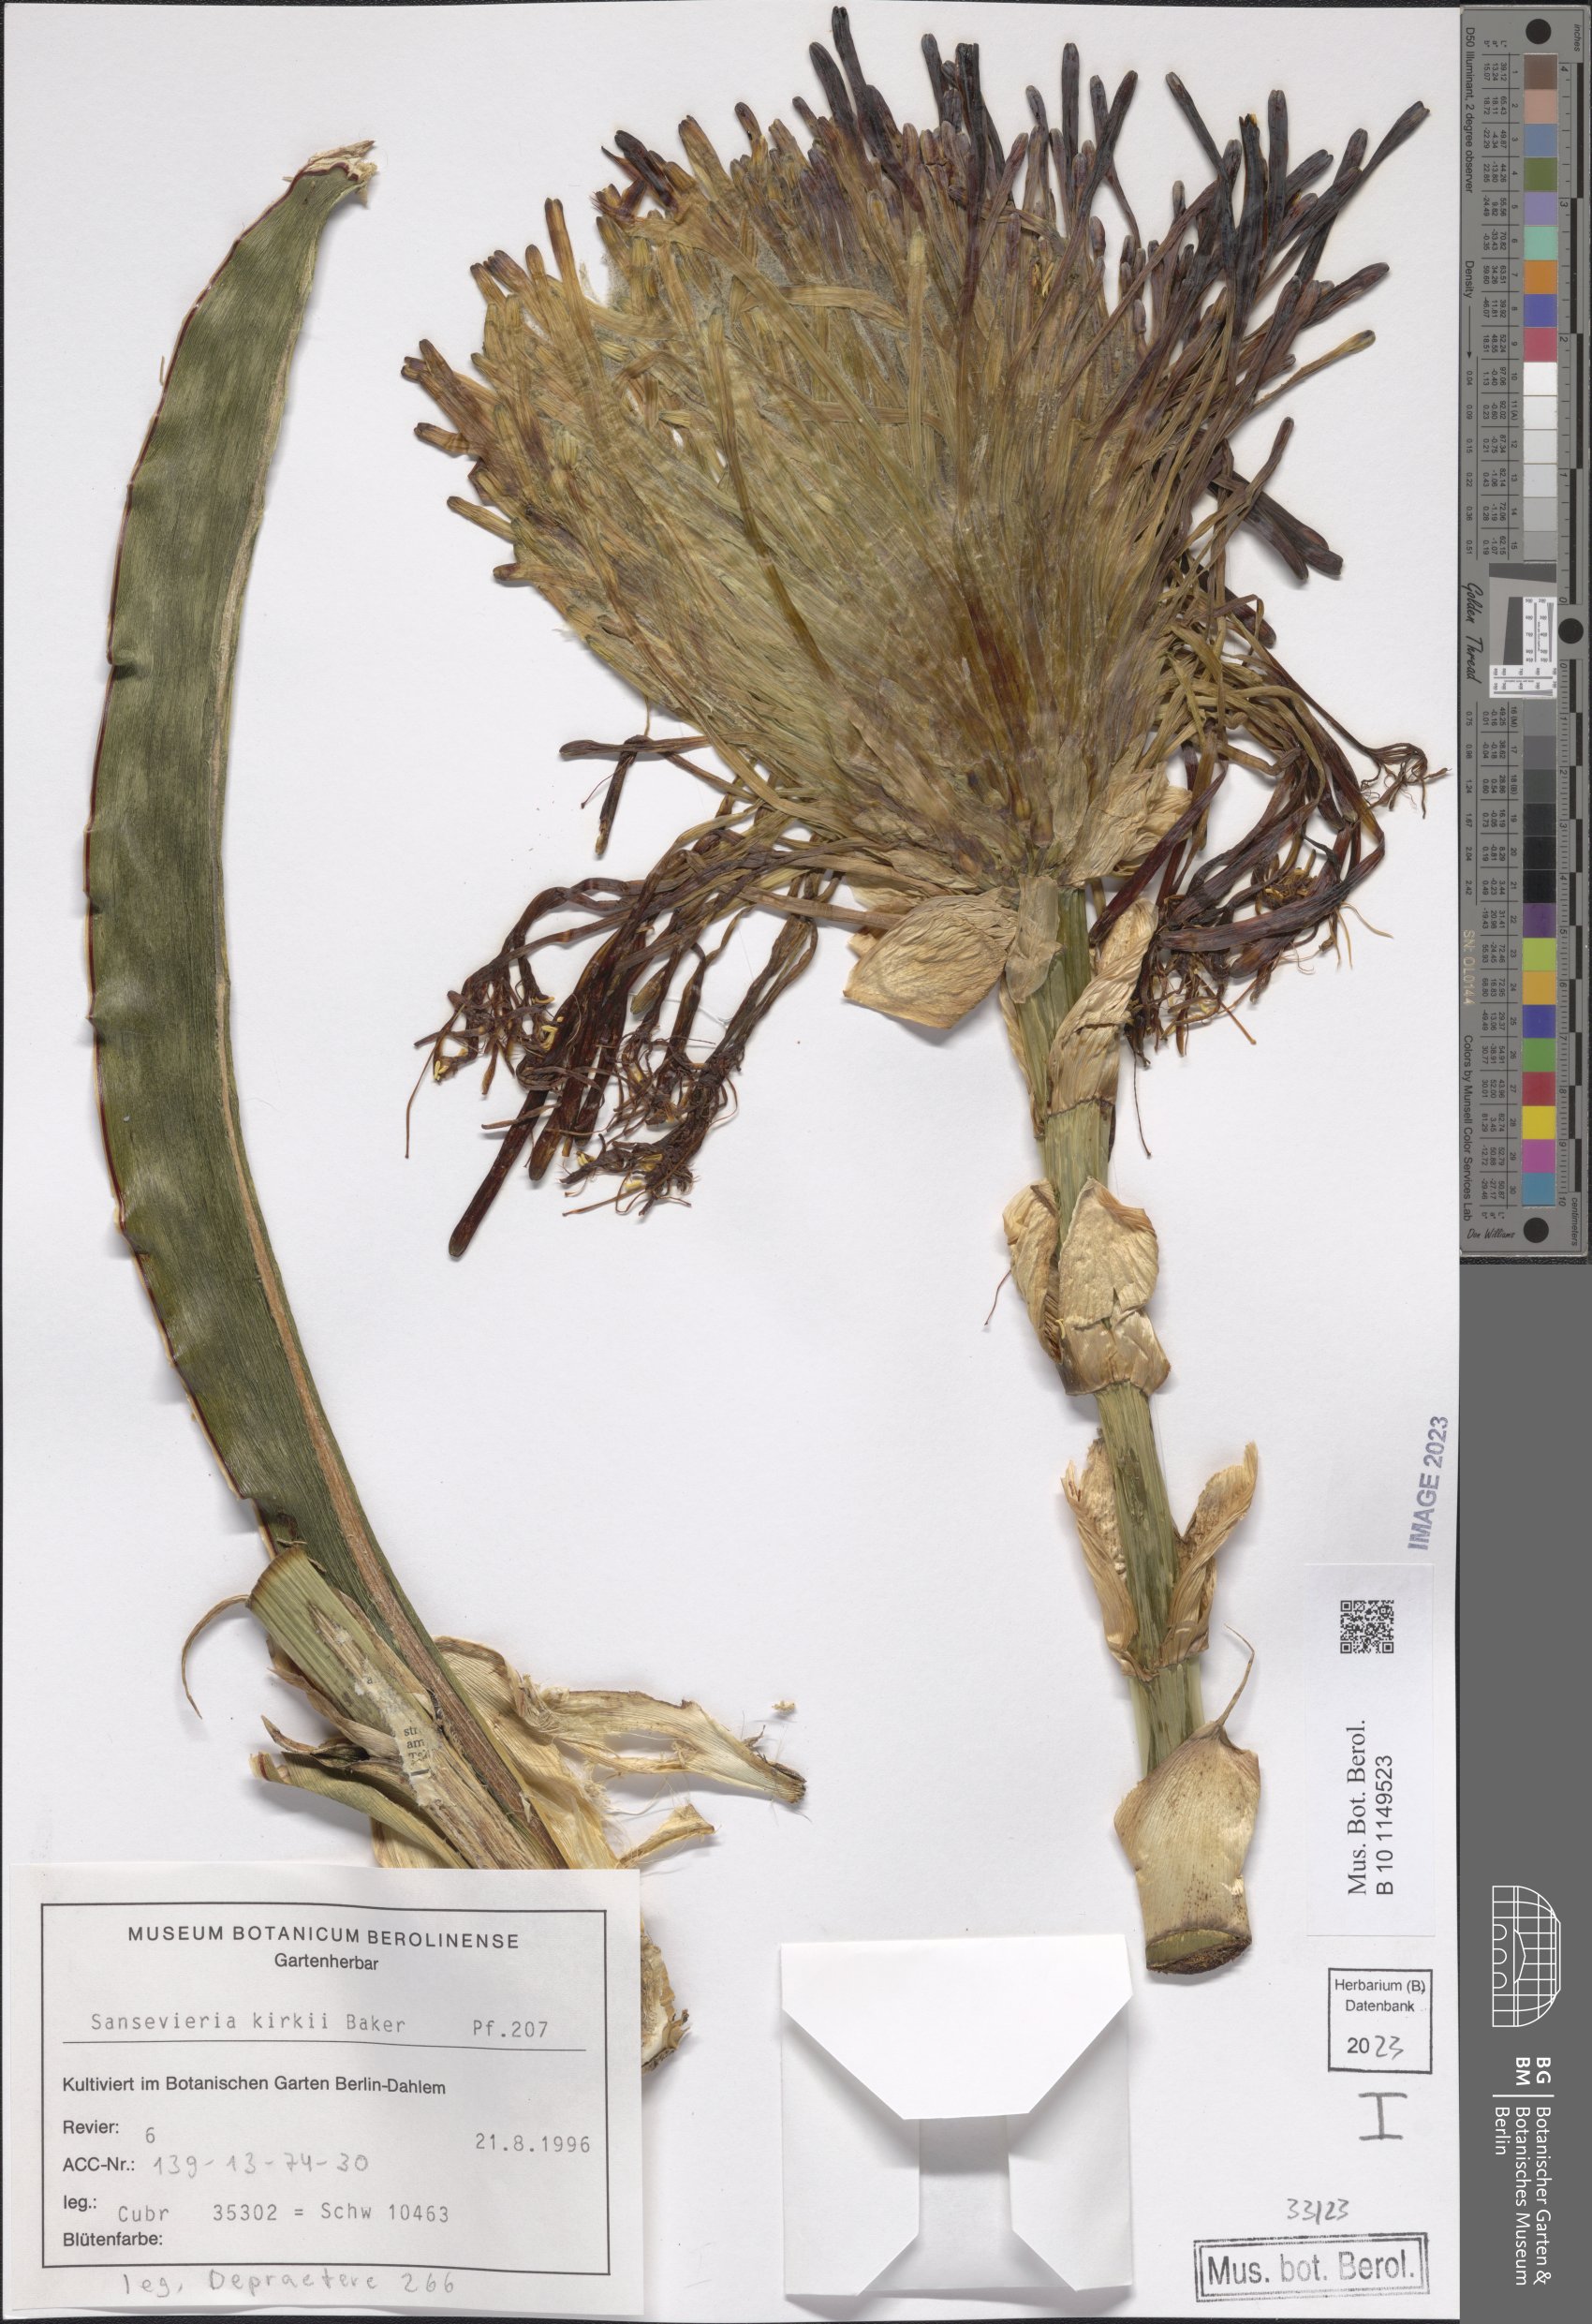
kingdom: Plantae
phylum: Tracheophyta
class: Liliopsida
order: Asparagales
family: Asparagaceae
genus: Dracaena
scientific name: Dracaena pethera
